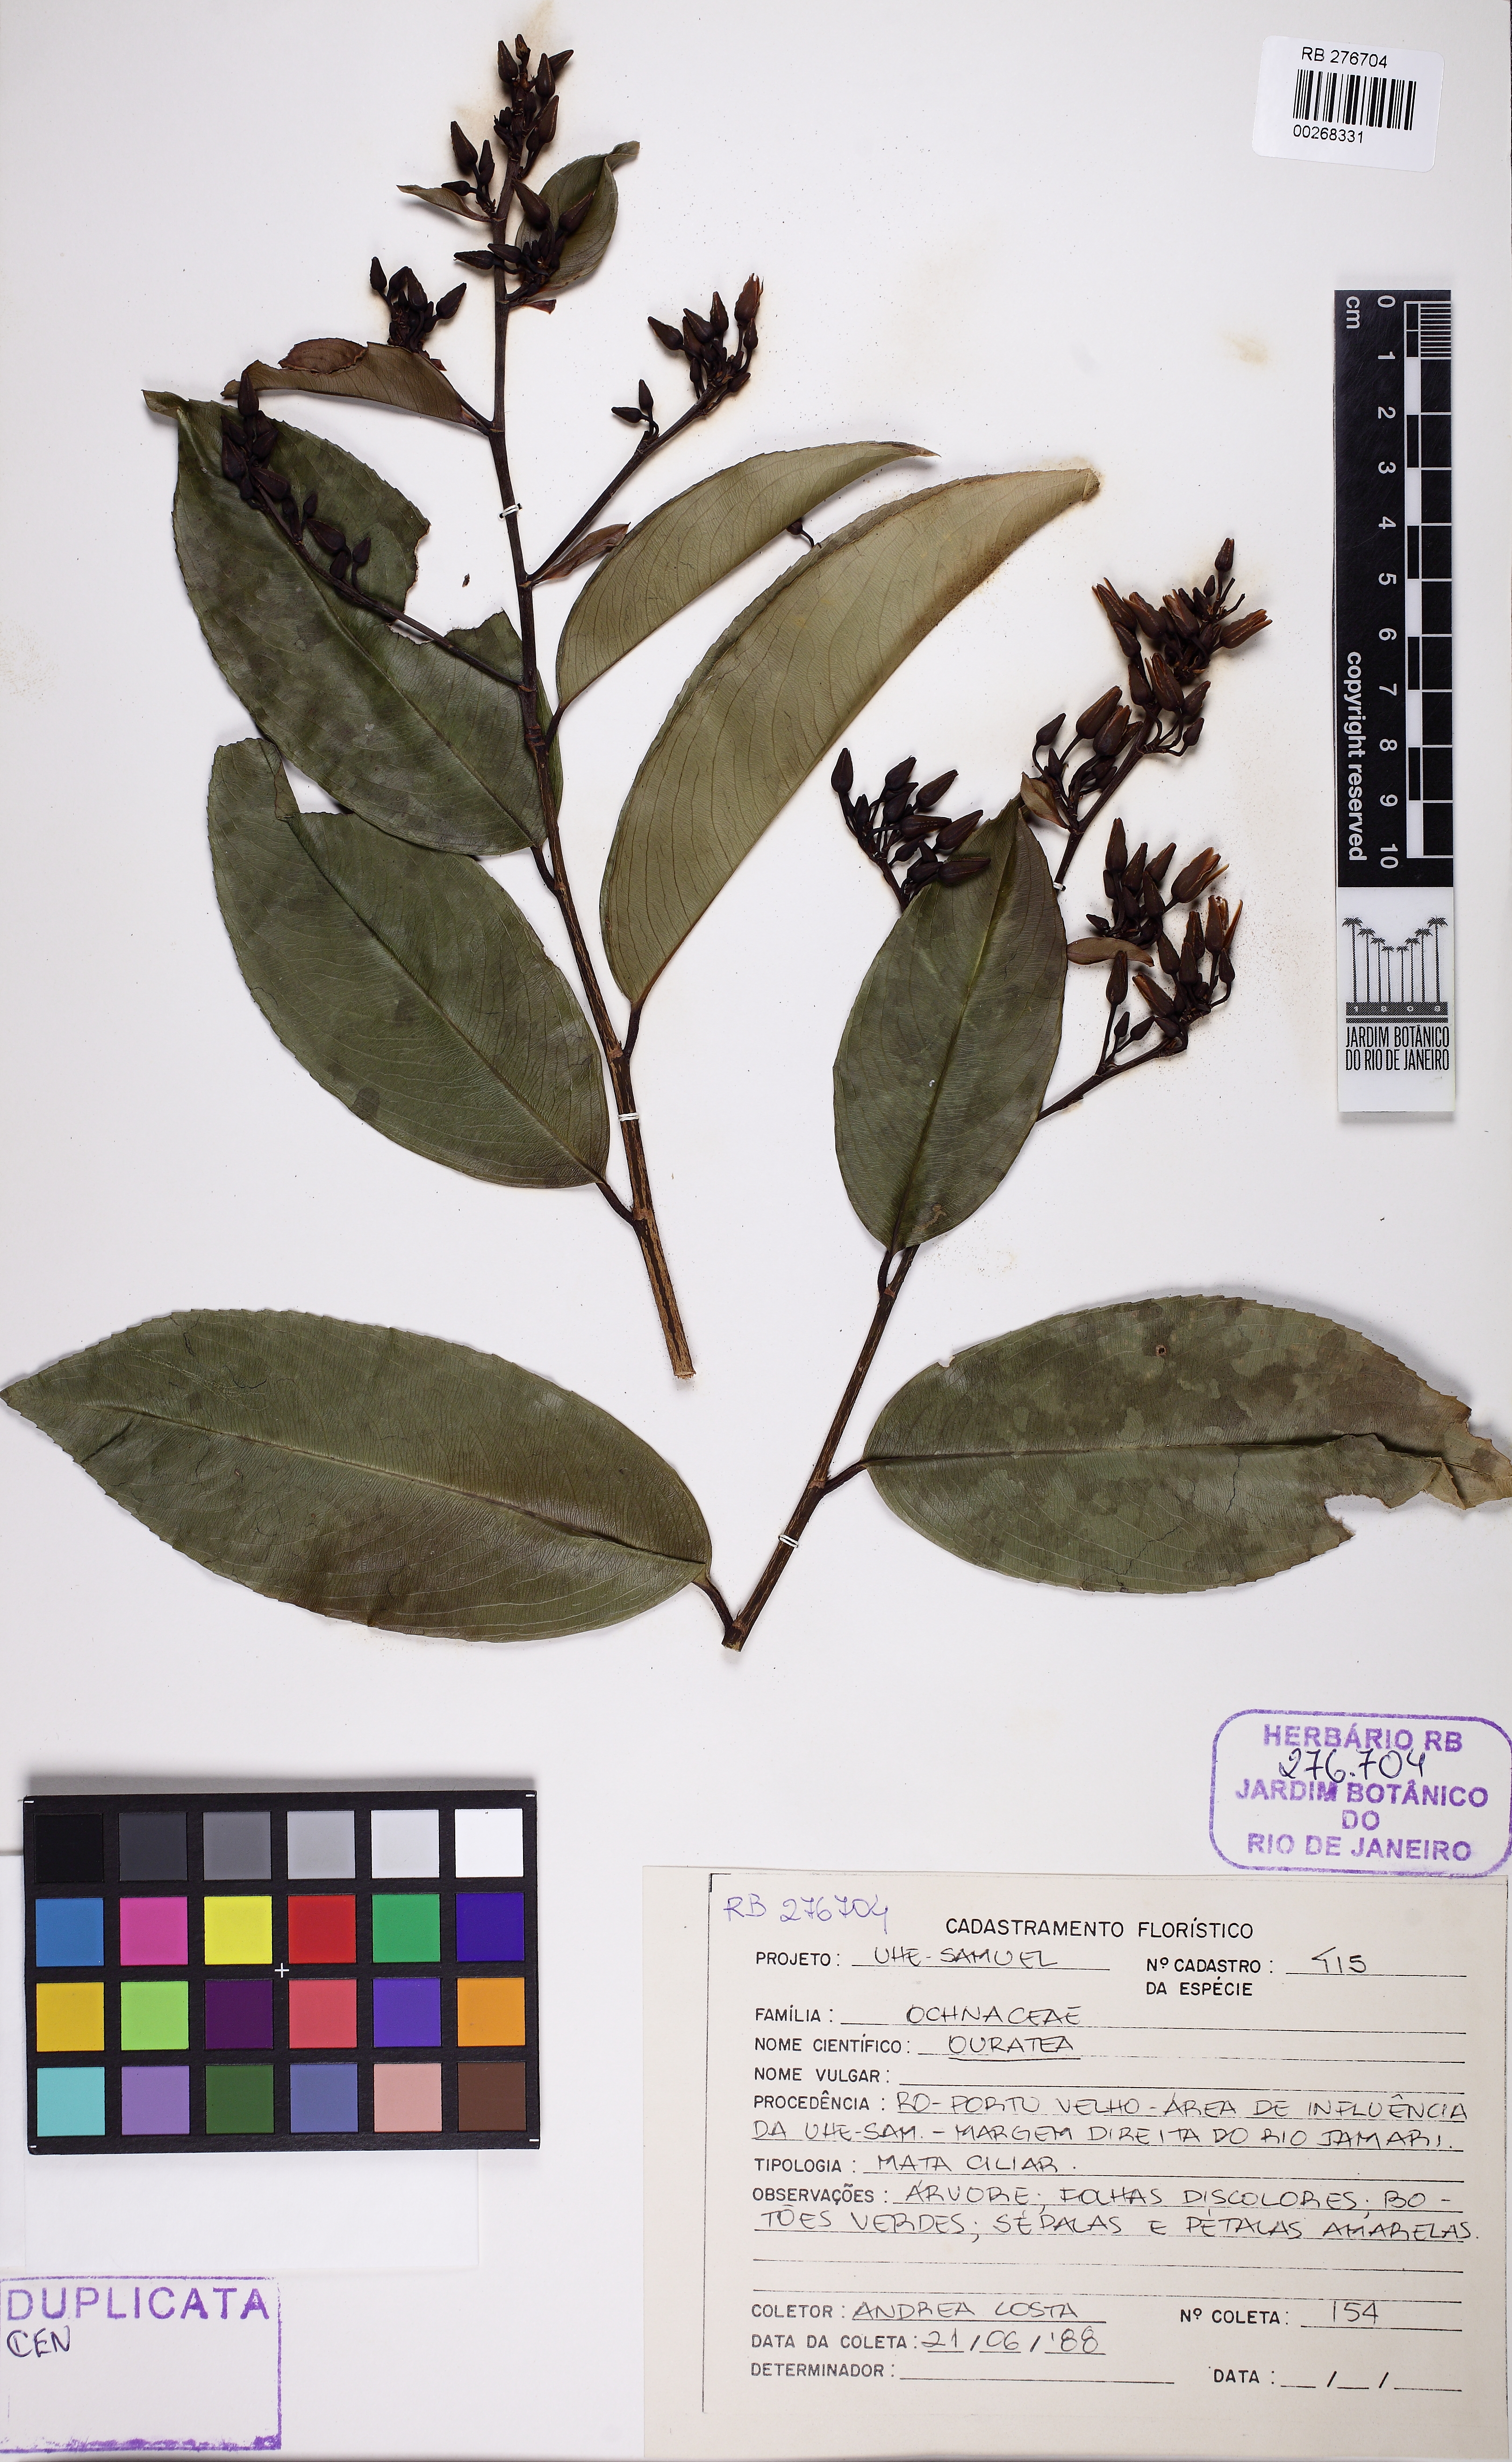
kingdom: Plantae
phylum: Tracheophyta
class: Magnoliopsida
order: Malpighiales
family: Ochnaceae
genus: Ouratea
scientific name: Ouratea
